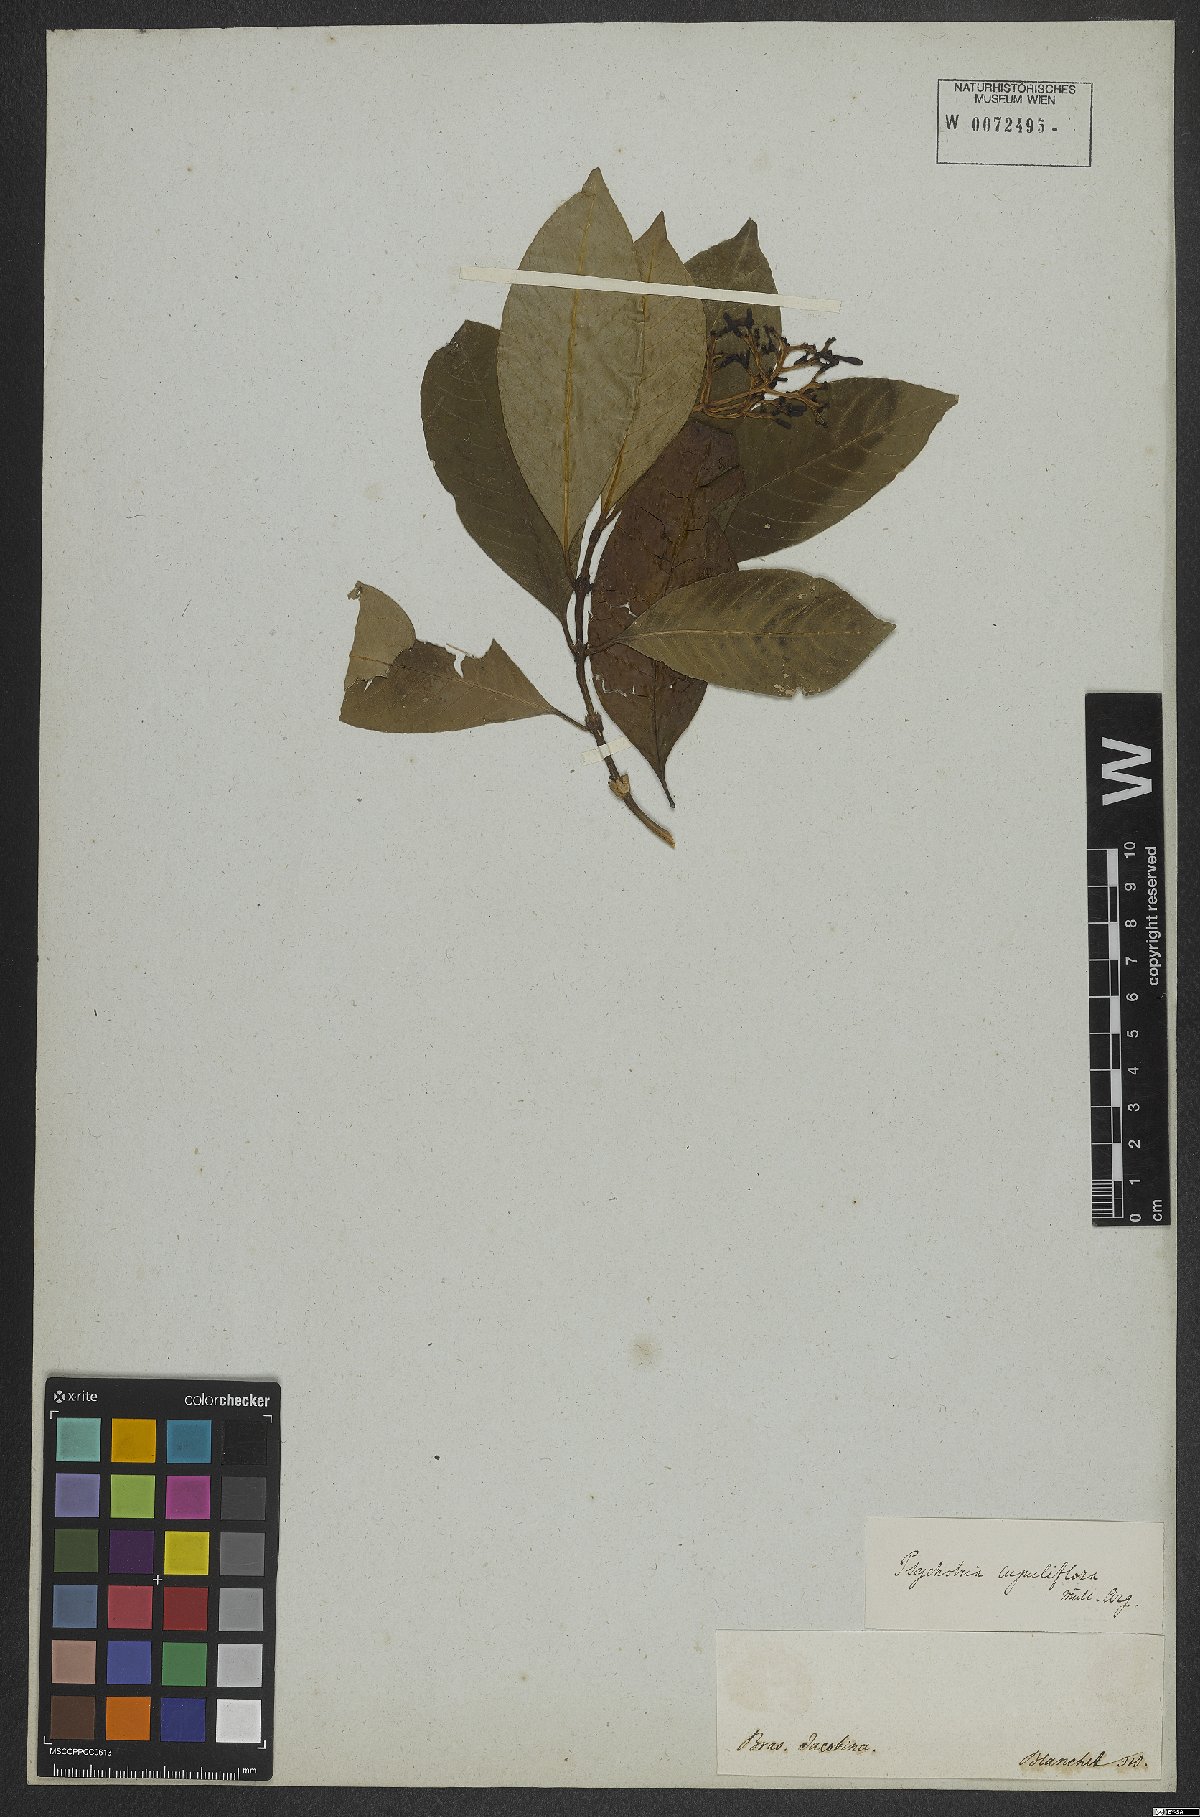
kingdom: Plantae
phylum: Tracheophyta
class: Magnoliopsida
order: Gentianales
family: Rubiaceae
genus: Psychotria
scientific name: Psychotria
